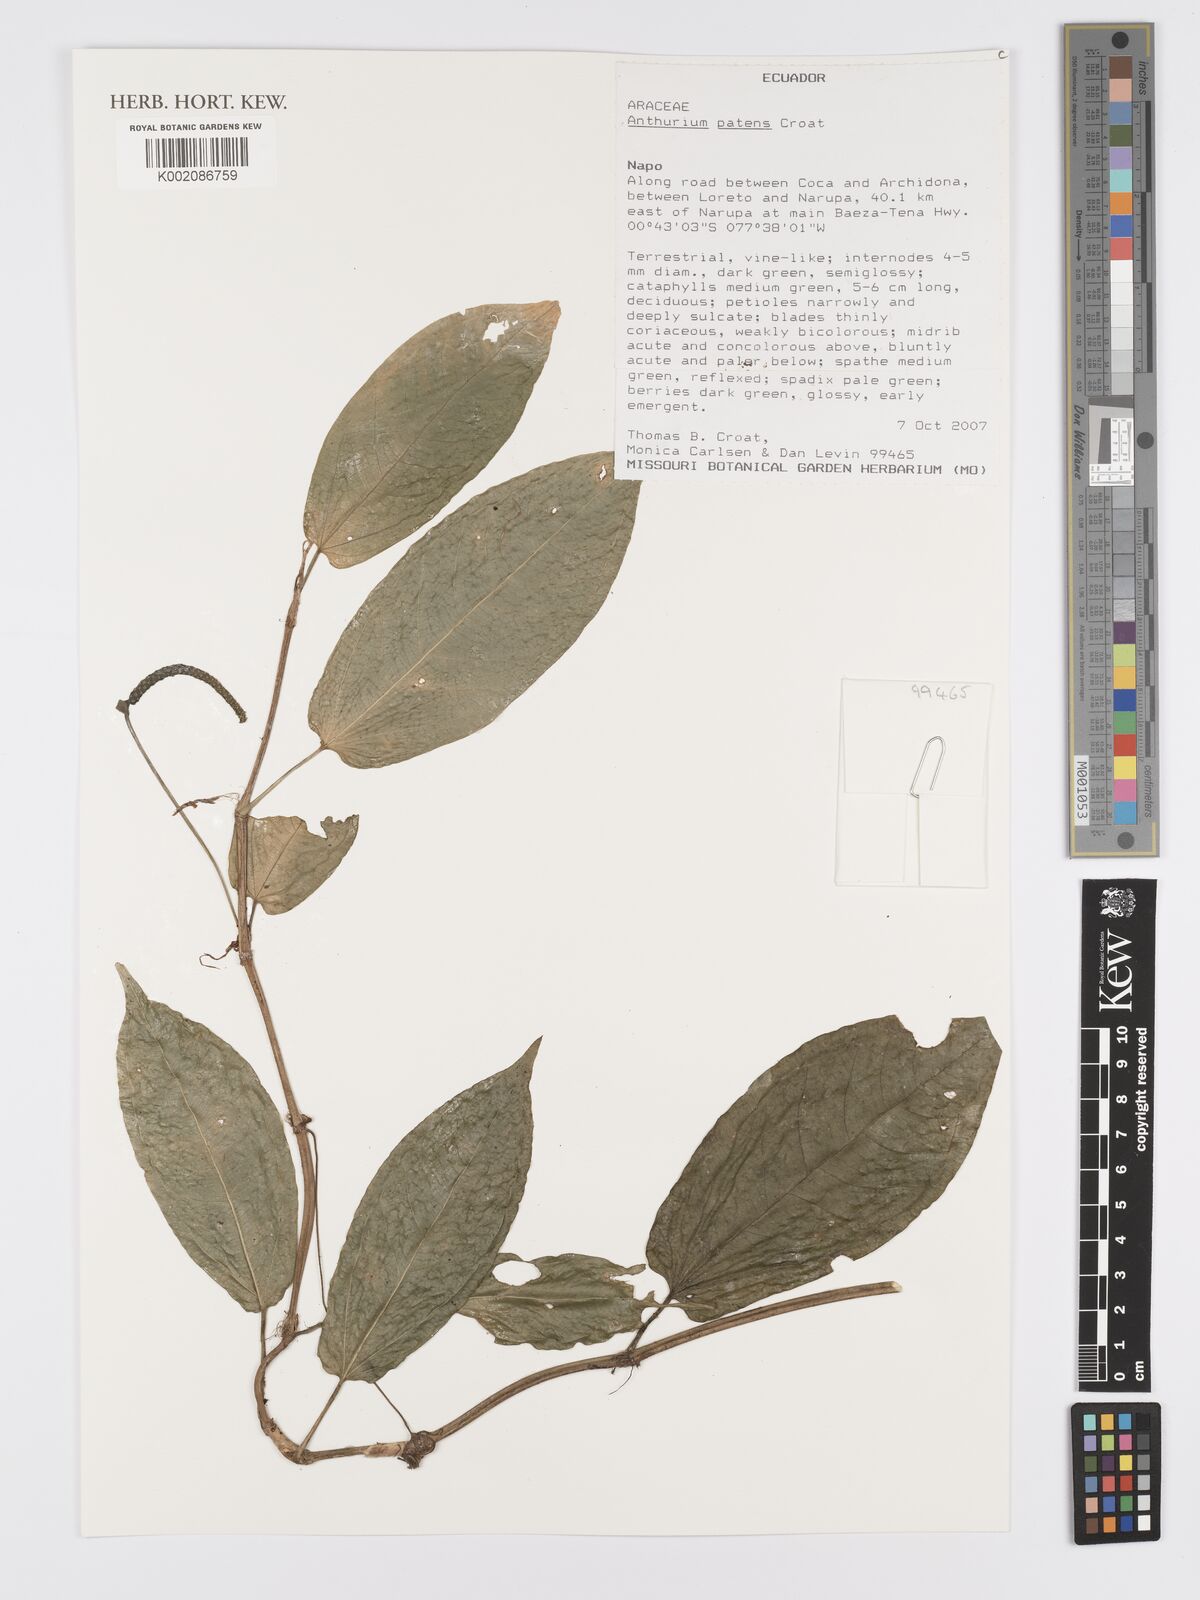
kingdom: Plantae
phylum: Tracheophyta
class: Liliopsida
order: Alismatales
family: Araceae
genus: Anthurium
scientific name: Anthurium patens
